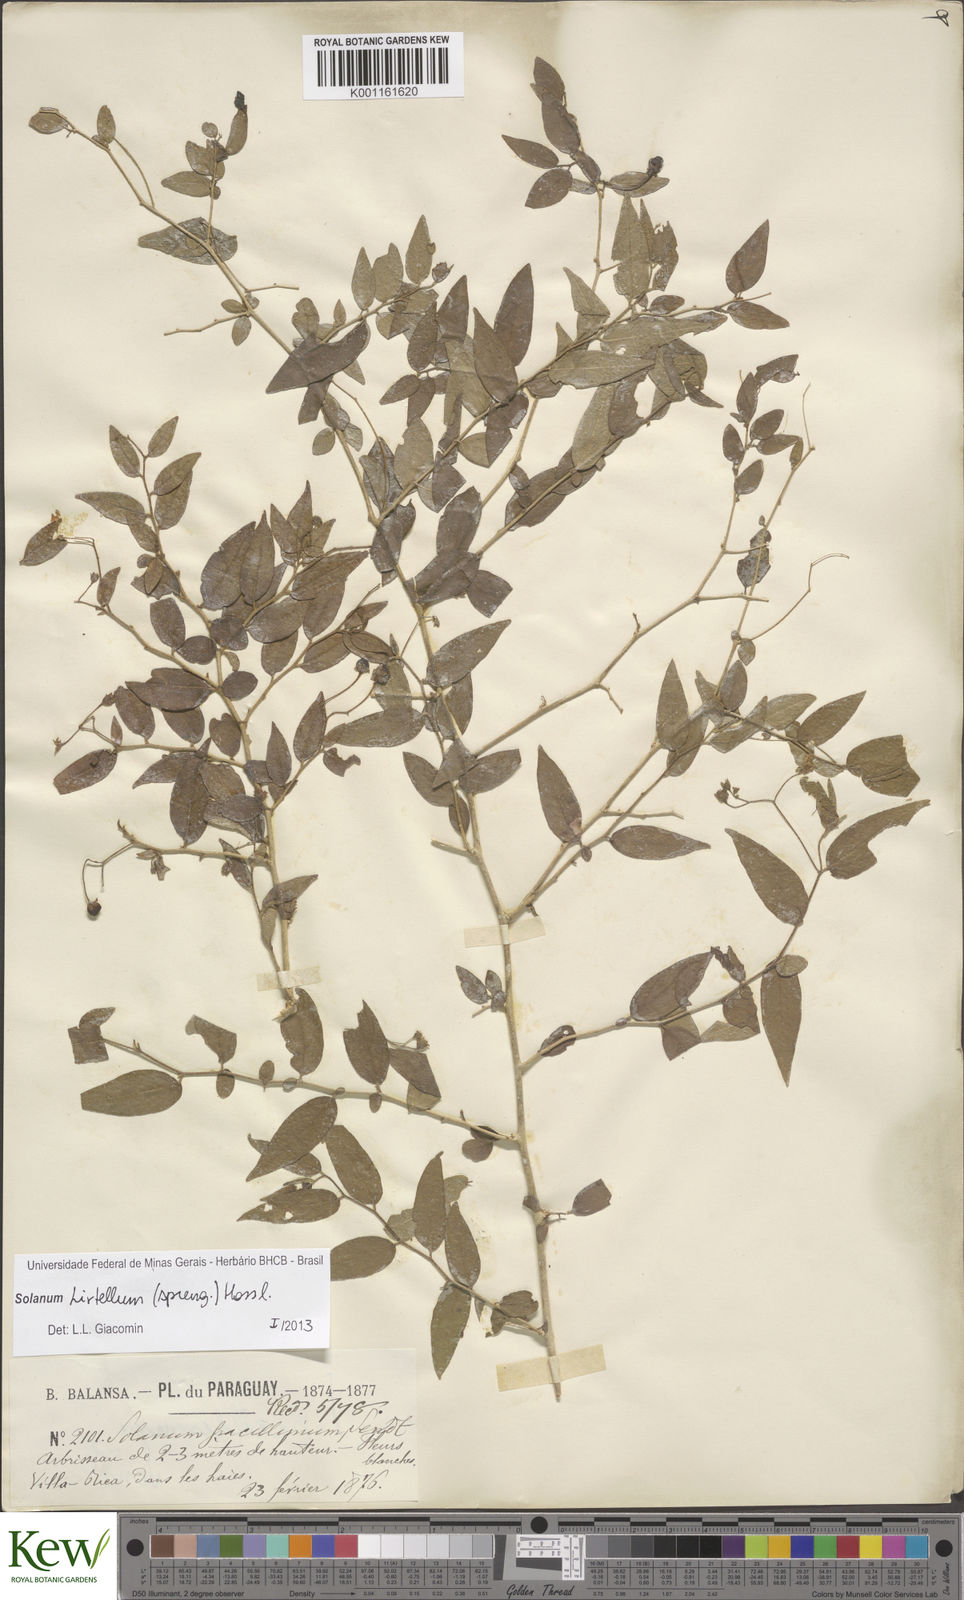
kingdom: Plantae
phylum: Tracheophyta
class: Magnoliopsida
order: Solanales
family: Solanaceae
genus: Solanum
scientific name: Solanum hirtellum
